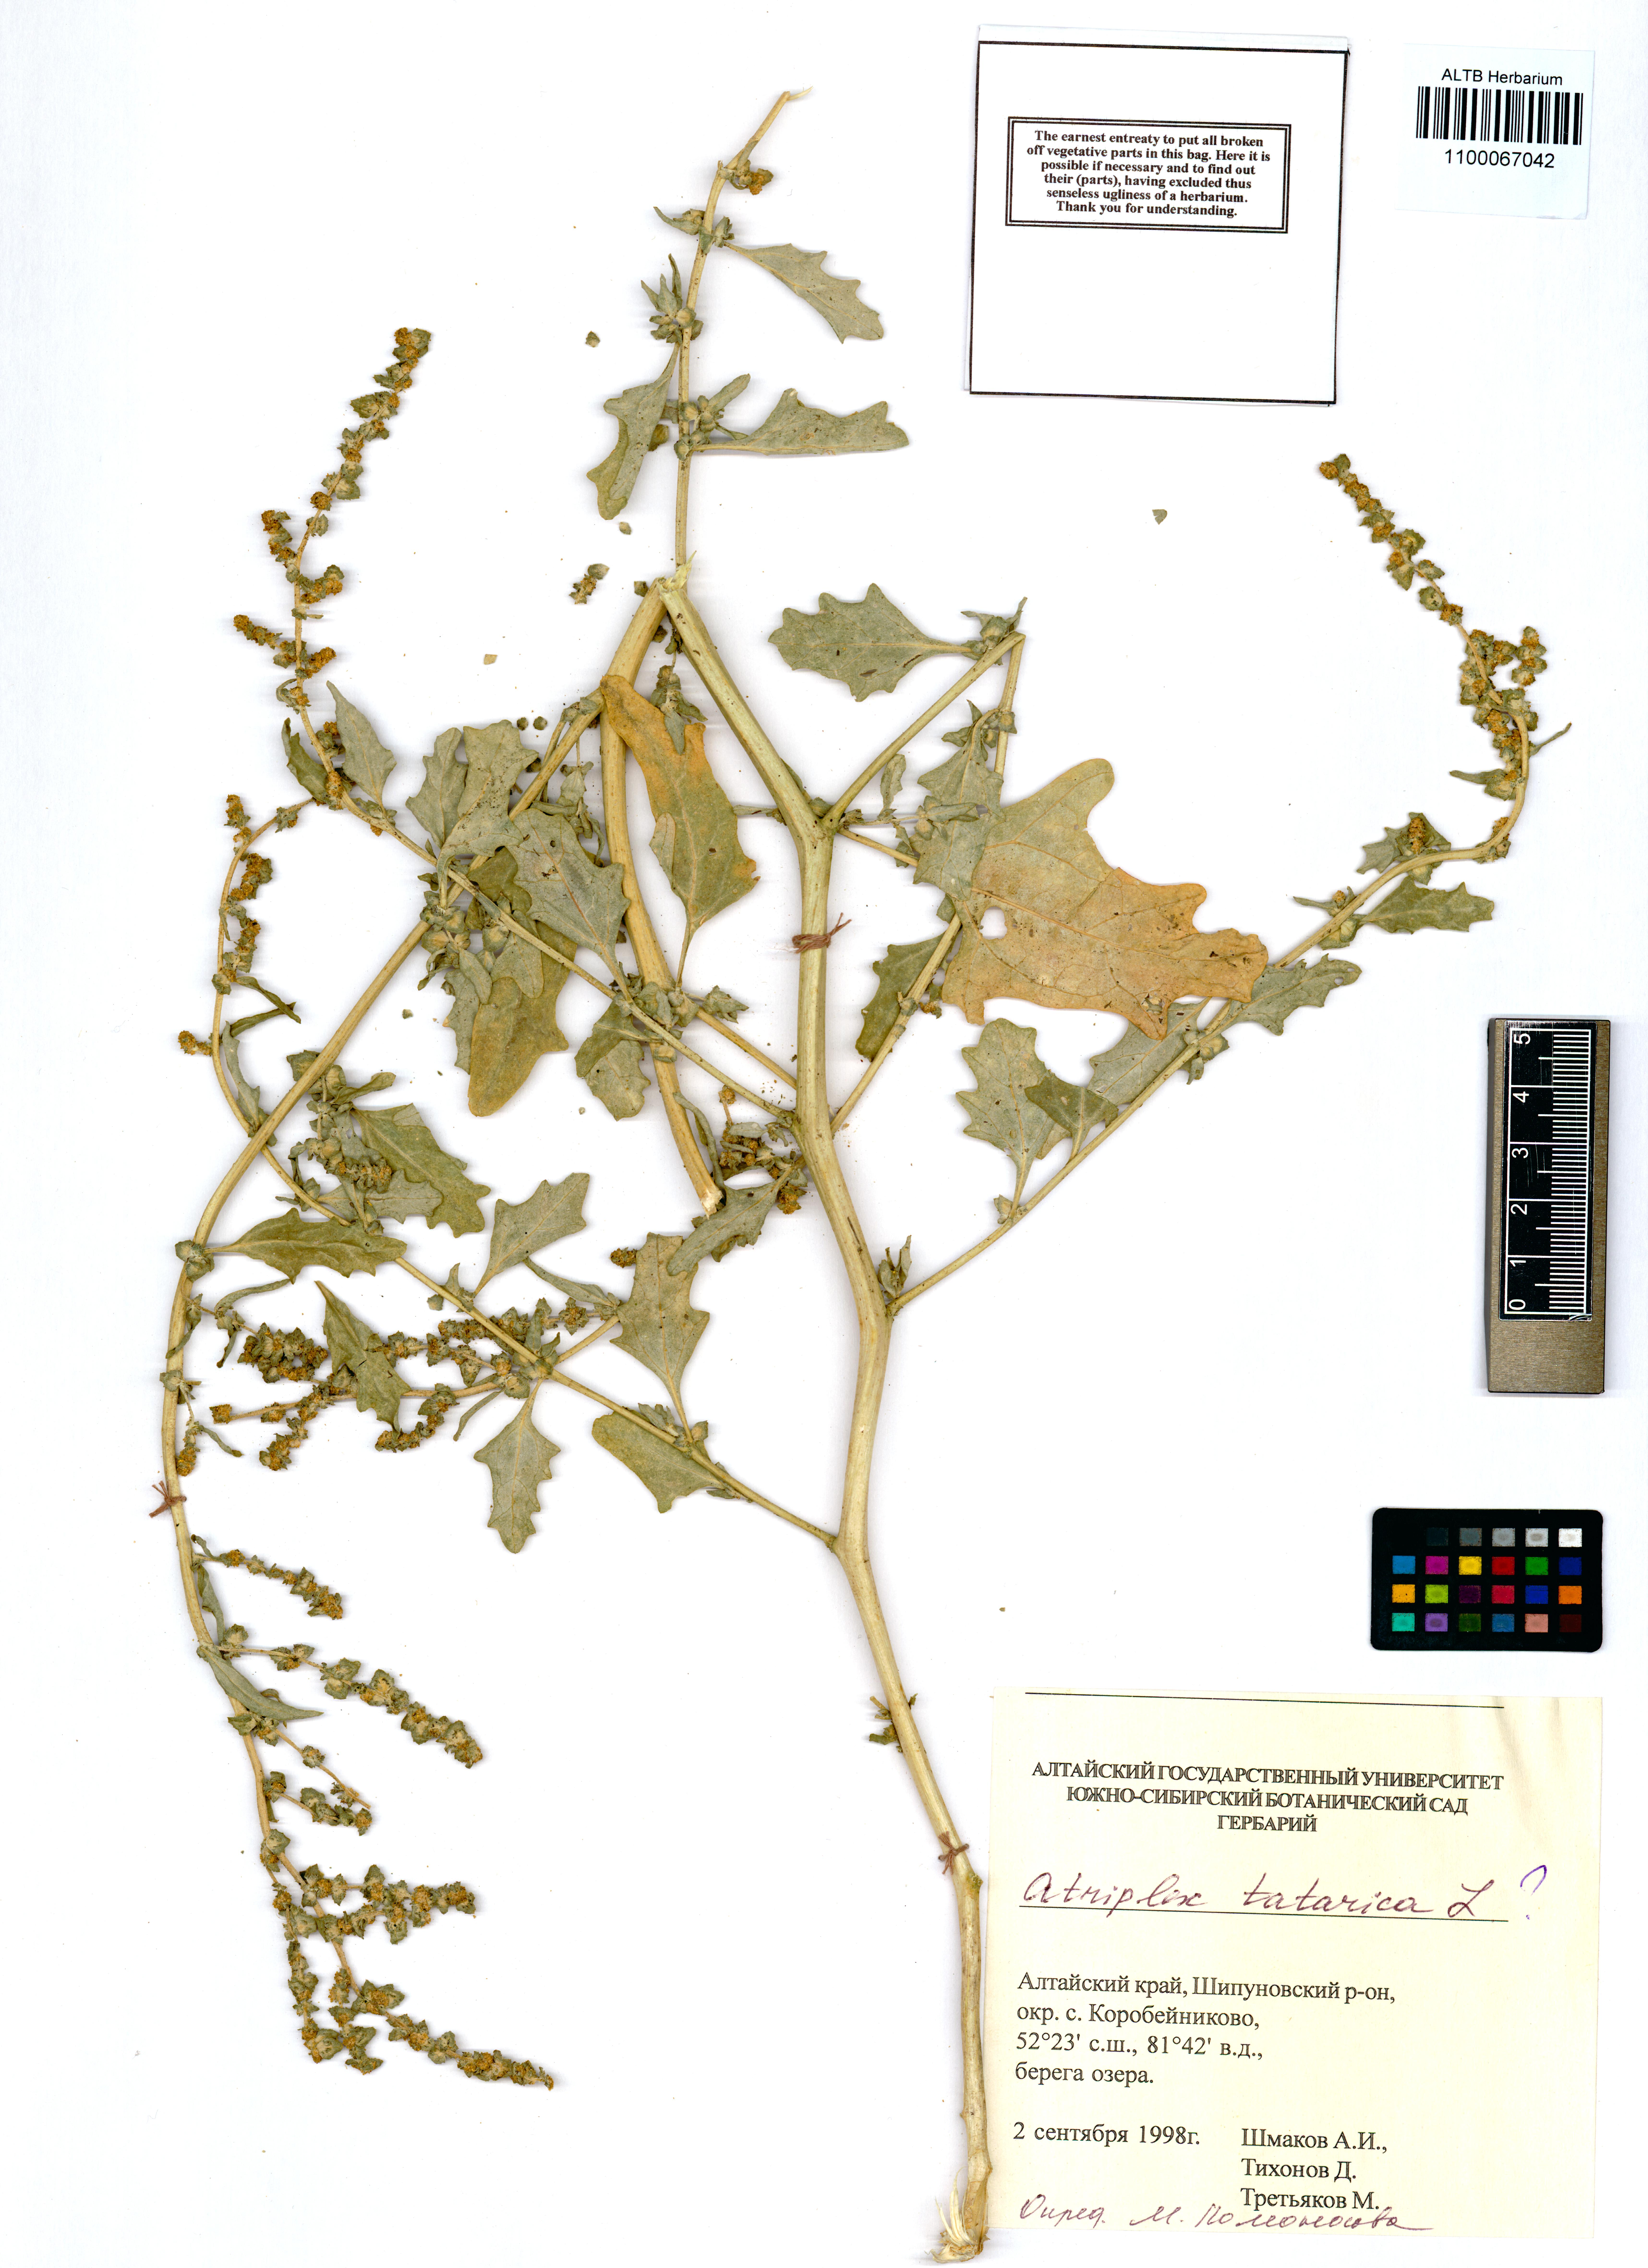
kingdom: Plantae
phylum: Tracheophyta
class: Magnoliopsida
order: Caryophyllales
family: Amaranthaceae
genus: Atriplex
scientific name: Atriplex tatarica
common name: Tatarian orache
